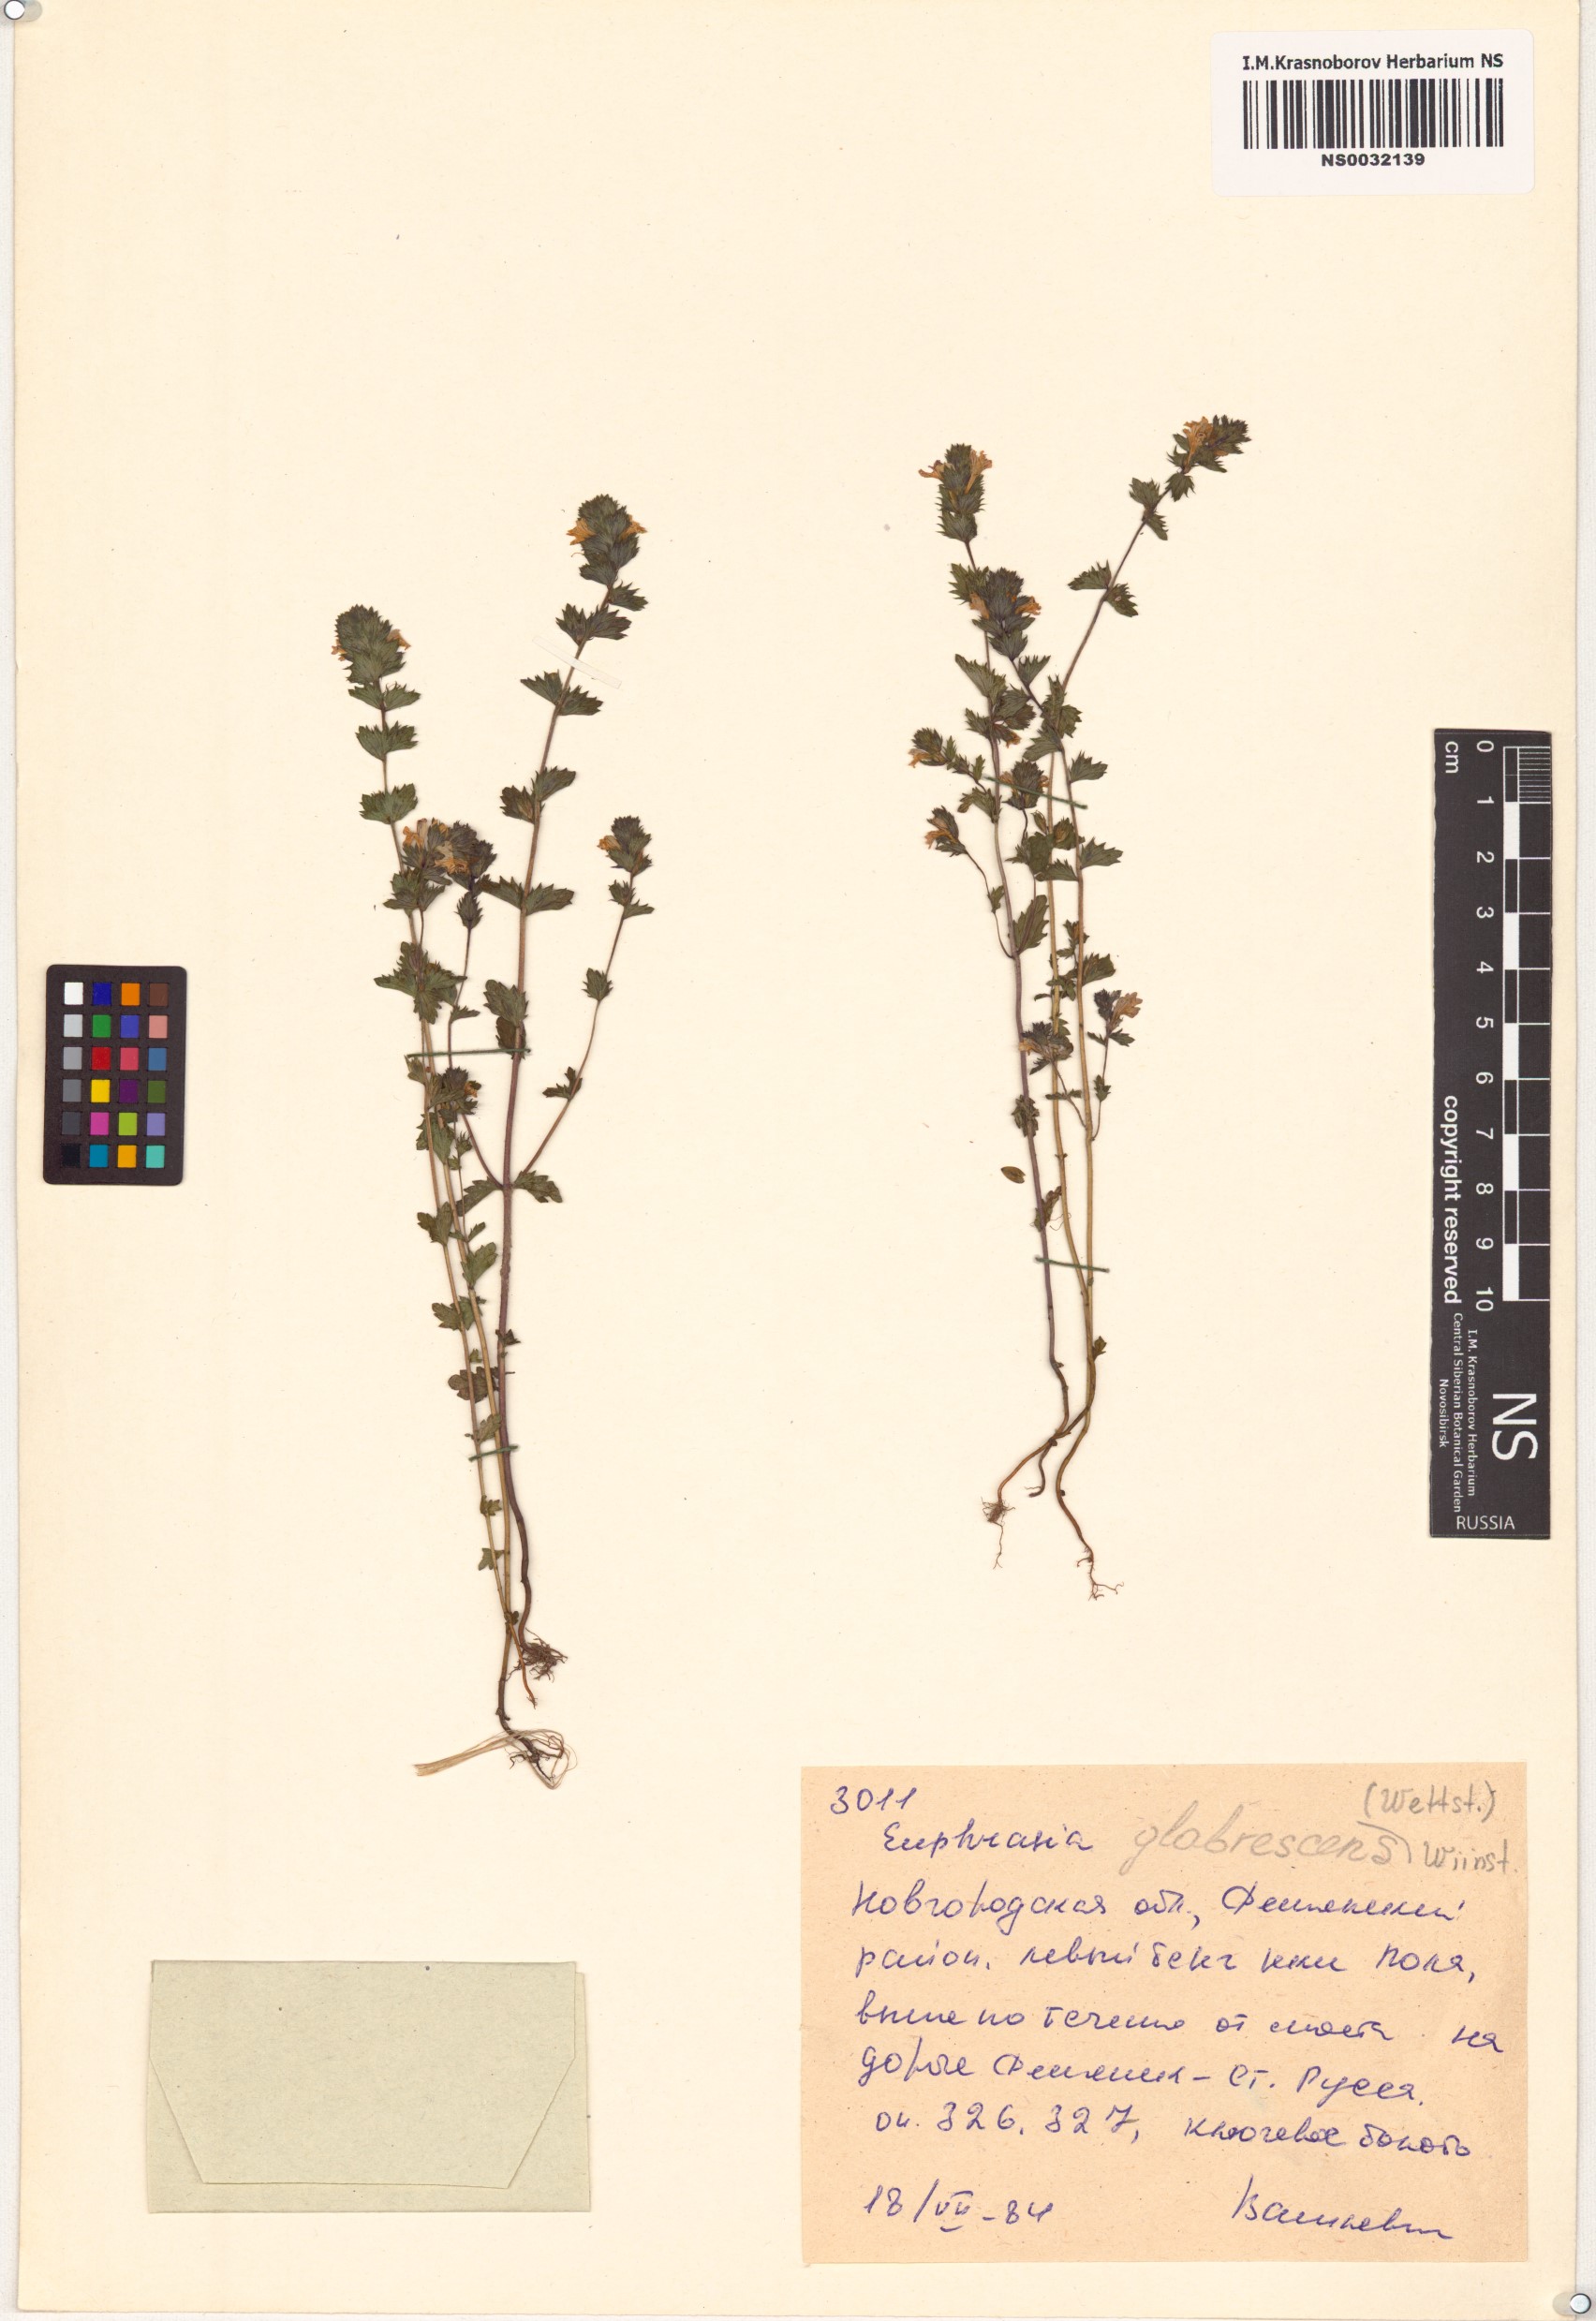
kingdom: Plantae
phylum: Tracheophyta
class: Magnoliopsida
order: Lamiales
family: Orobanchaceae
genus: Euphrasia
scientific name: Euphrasia micrantha
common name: Northern eyebright
